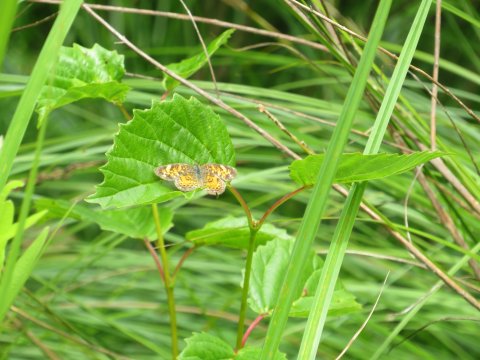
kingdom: Animalia
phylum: Arthropoda
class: Insecta
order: Lepidoptera
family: Nymphalidae
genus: Phyciodes
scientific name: Phyciodes tharos
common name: Pearl Crescent
